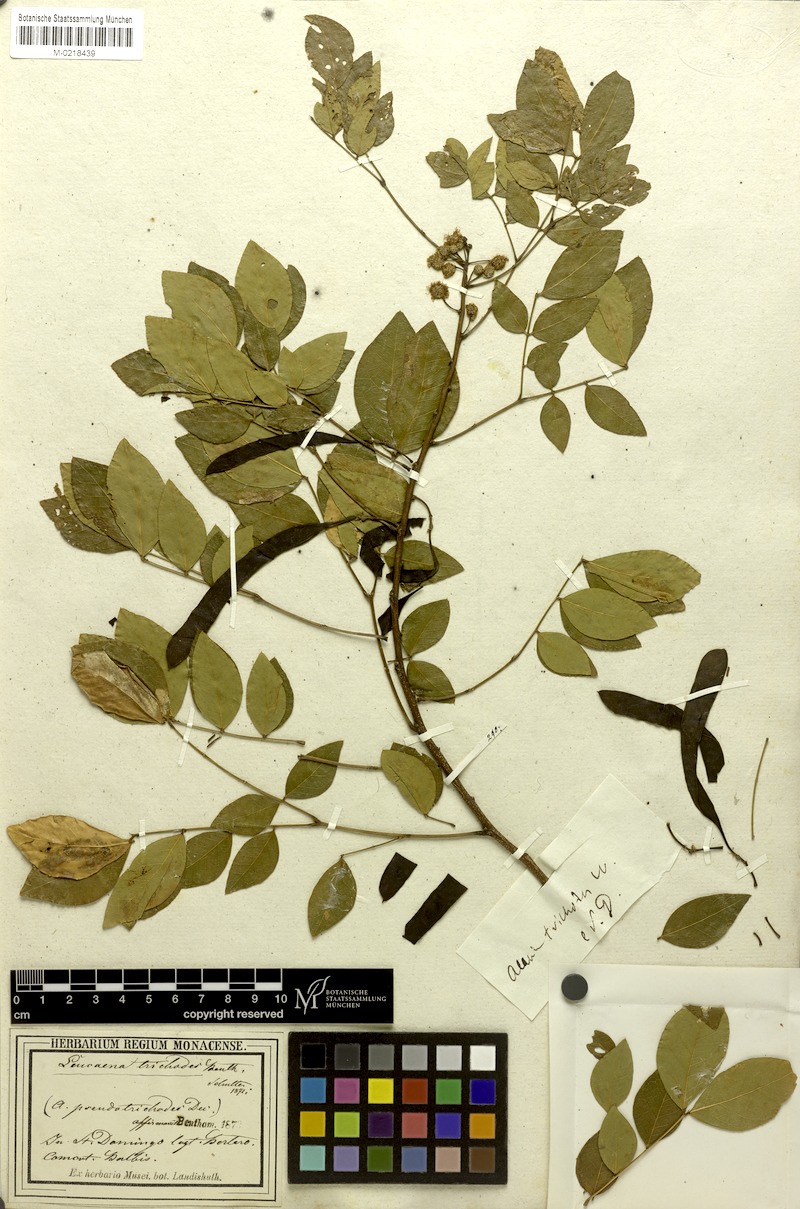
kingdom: Plantae
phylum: Tracheophyta
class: Magnoliopsida
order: Fabales
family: Fabaceae
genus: Leucaena
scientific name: Leucaena trichodes
